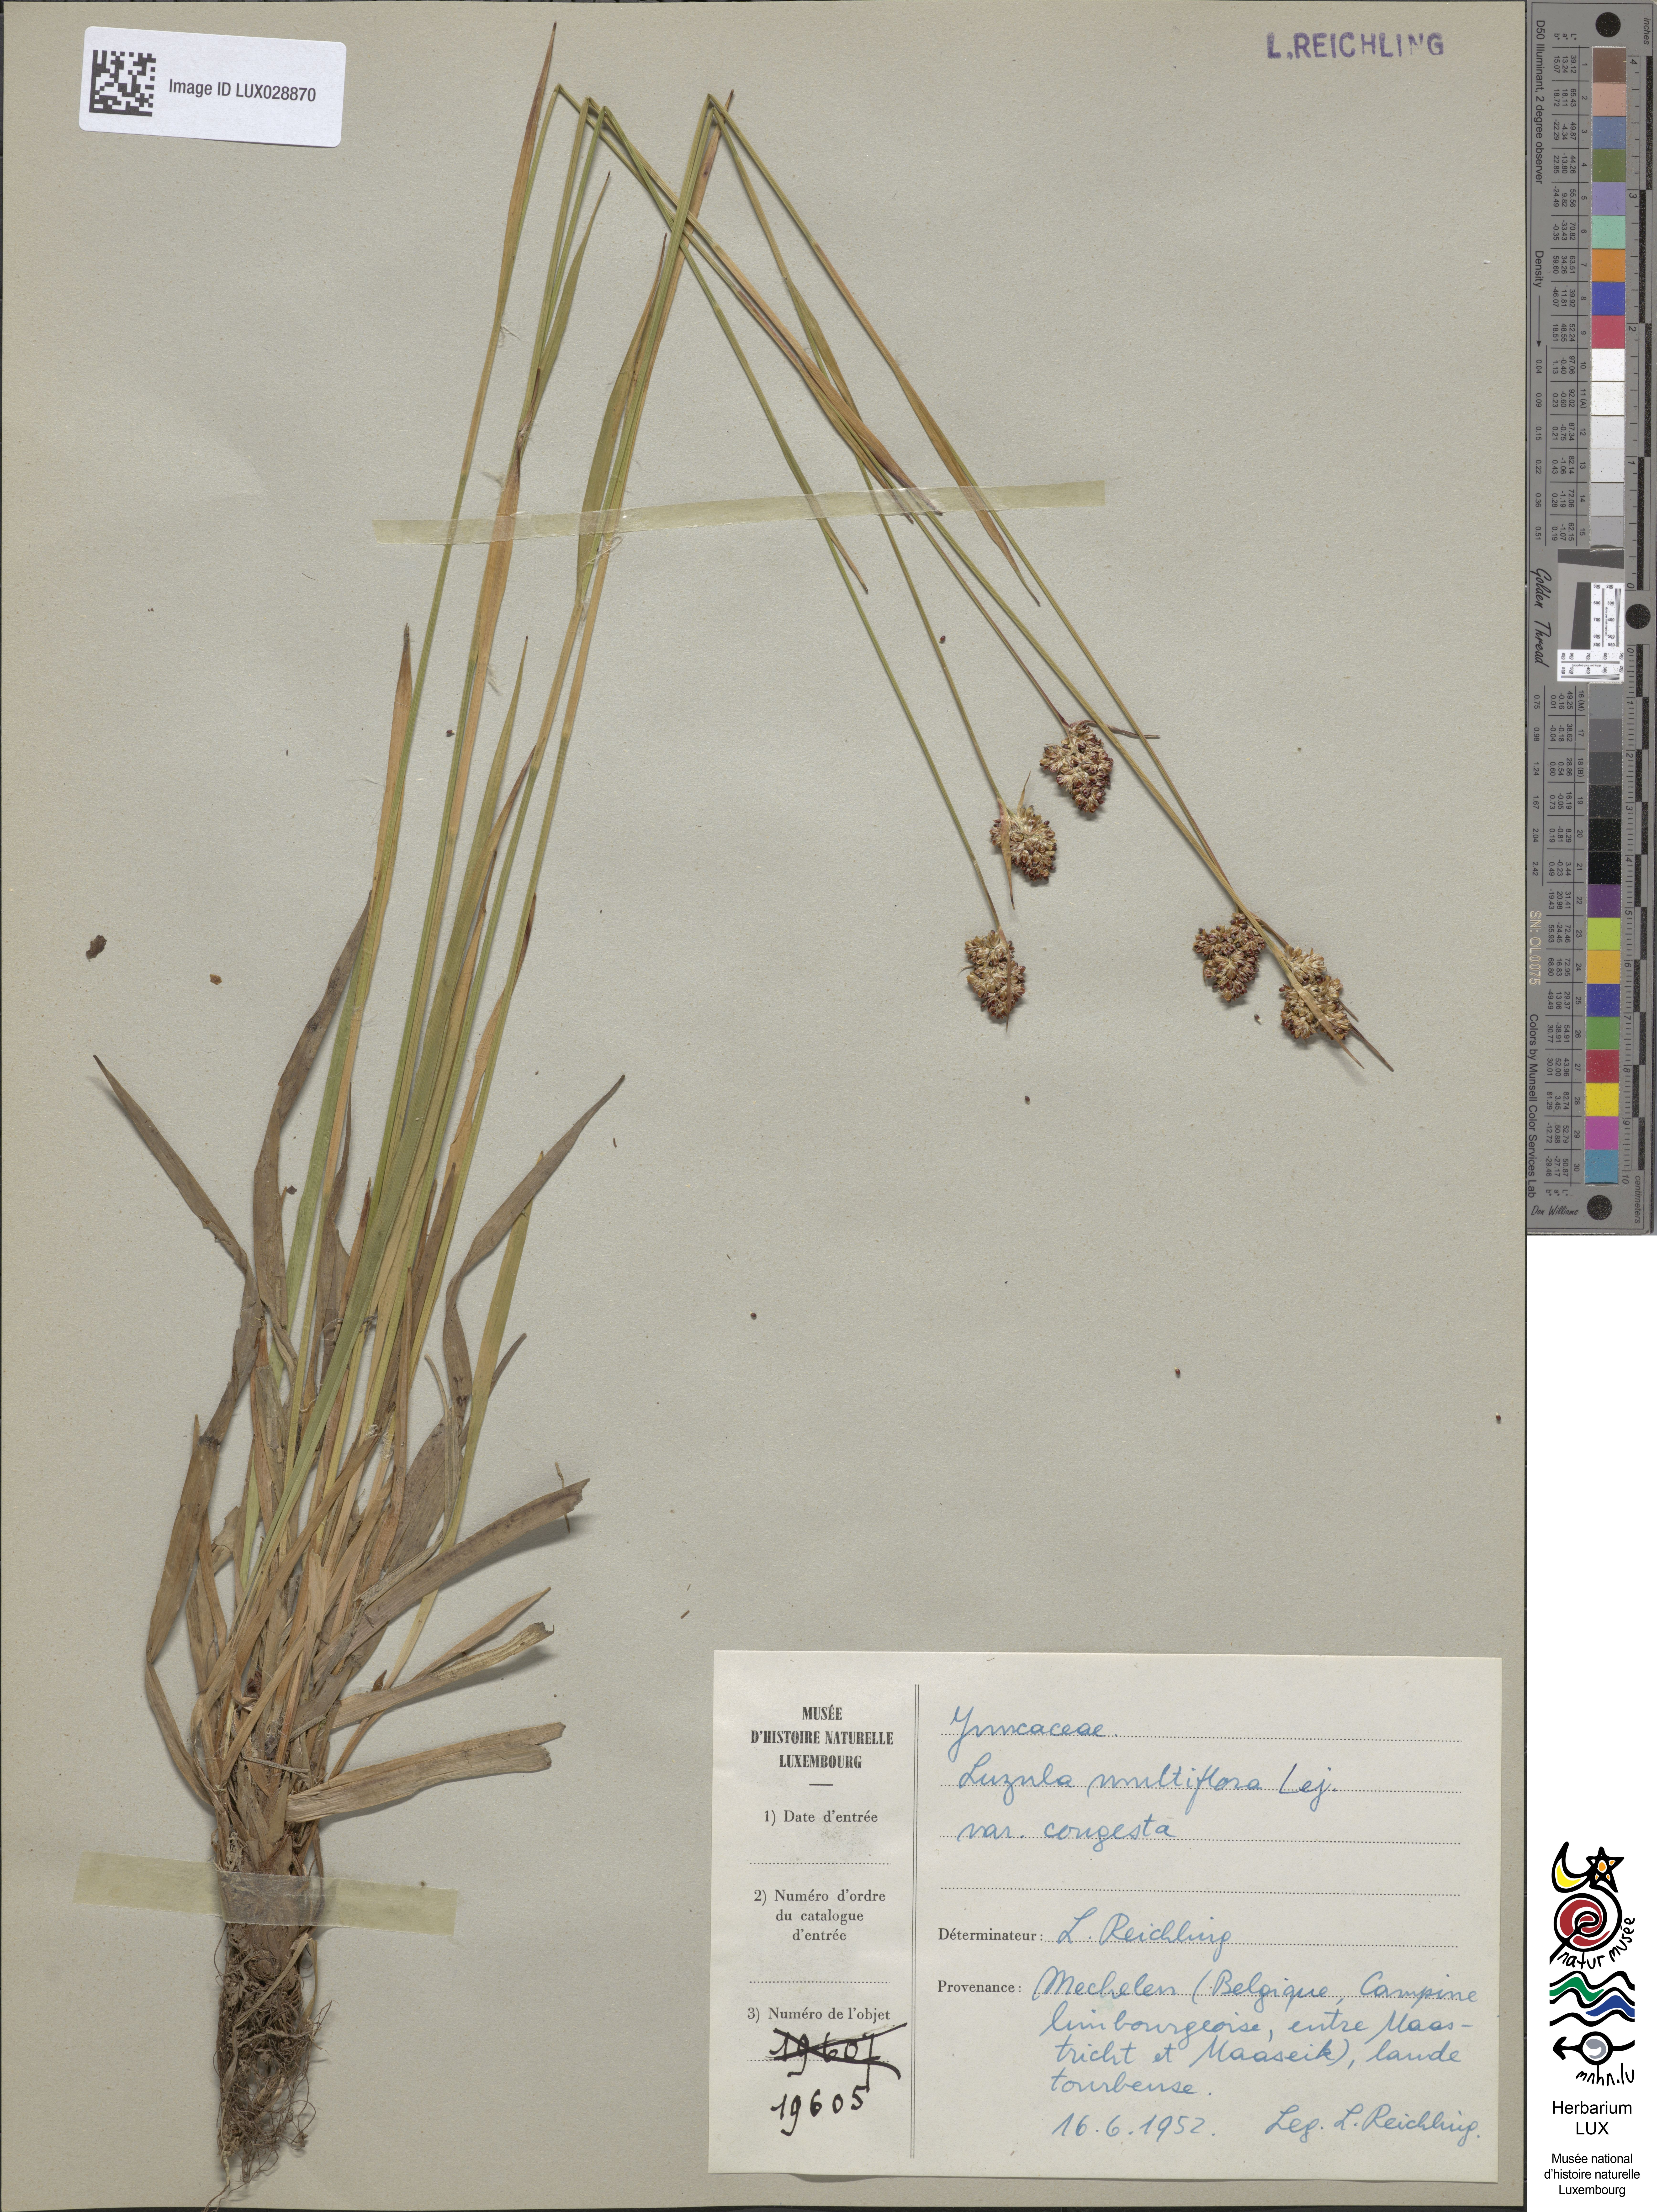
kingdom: Plantae
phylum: Tracheophyta
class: Liliopsida
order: Poales
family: Juncaceae
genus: Luzula
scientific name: Luzula congesta
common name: Heath woodrush
